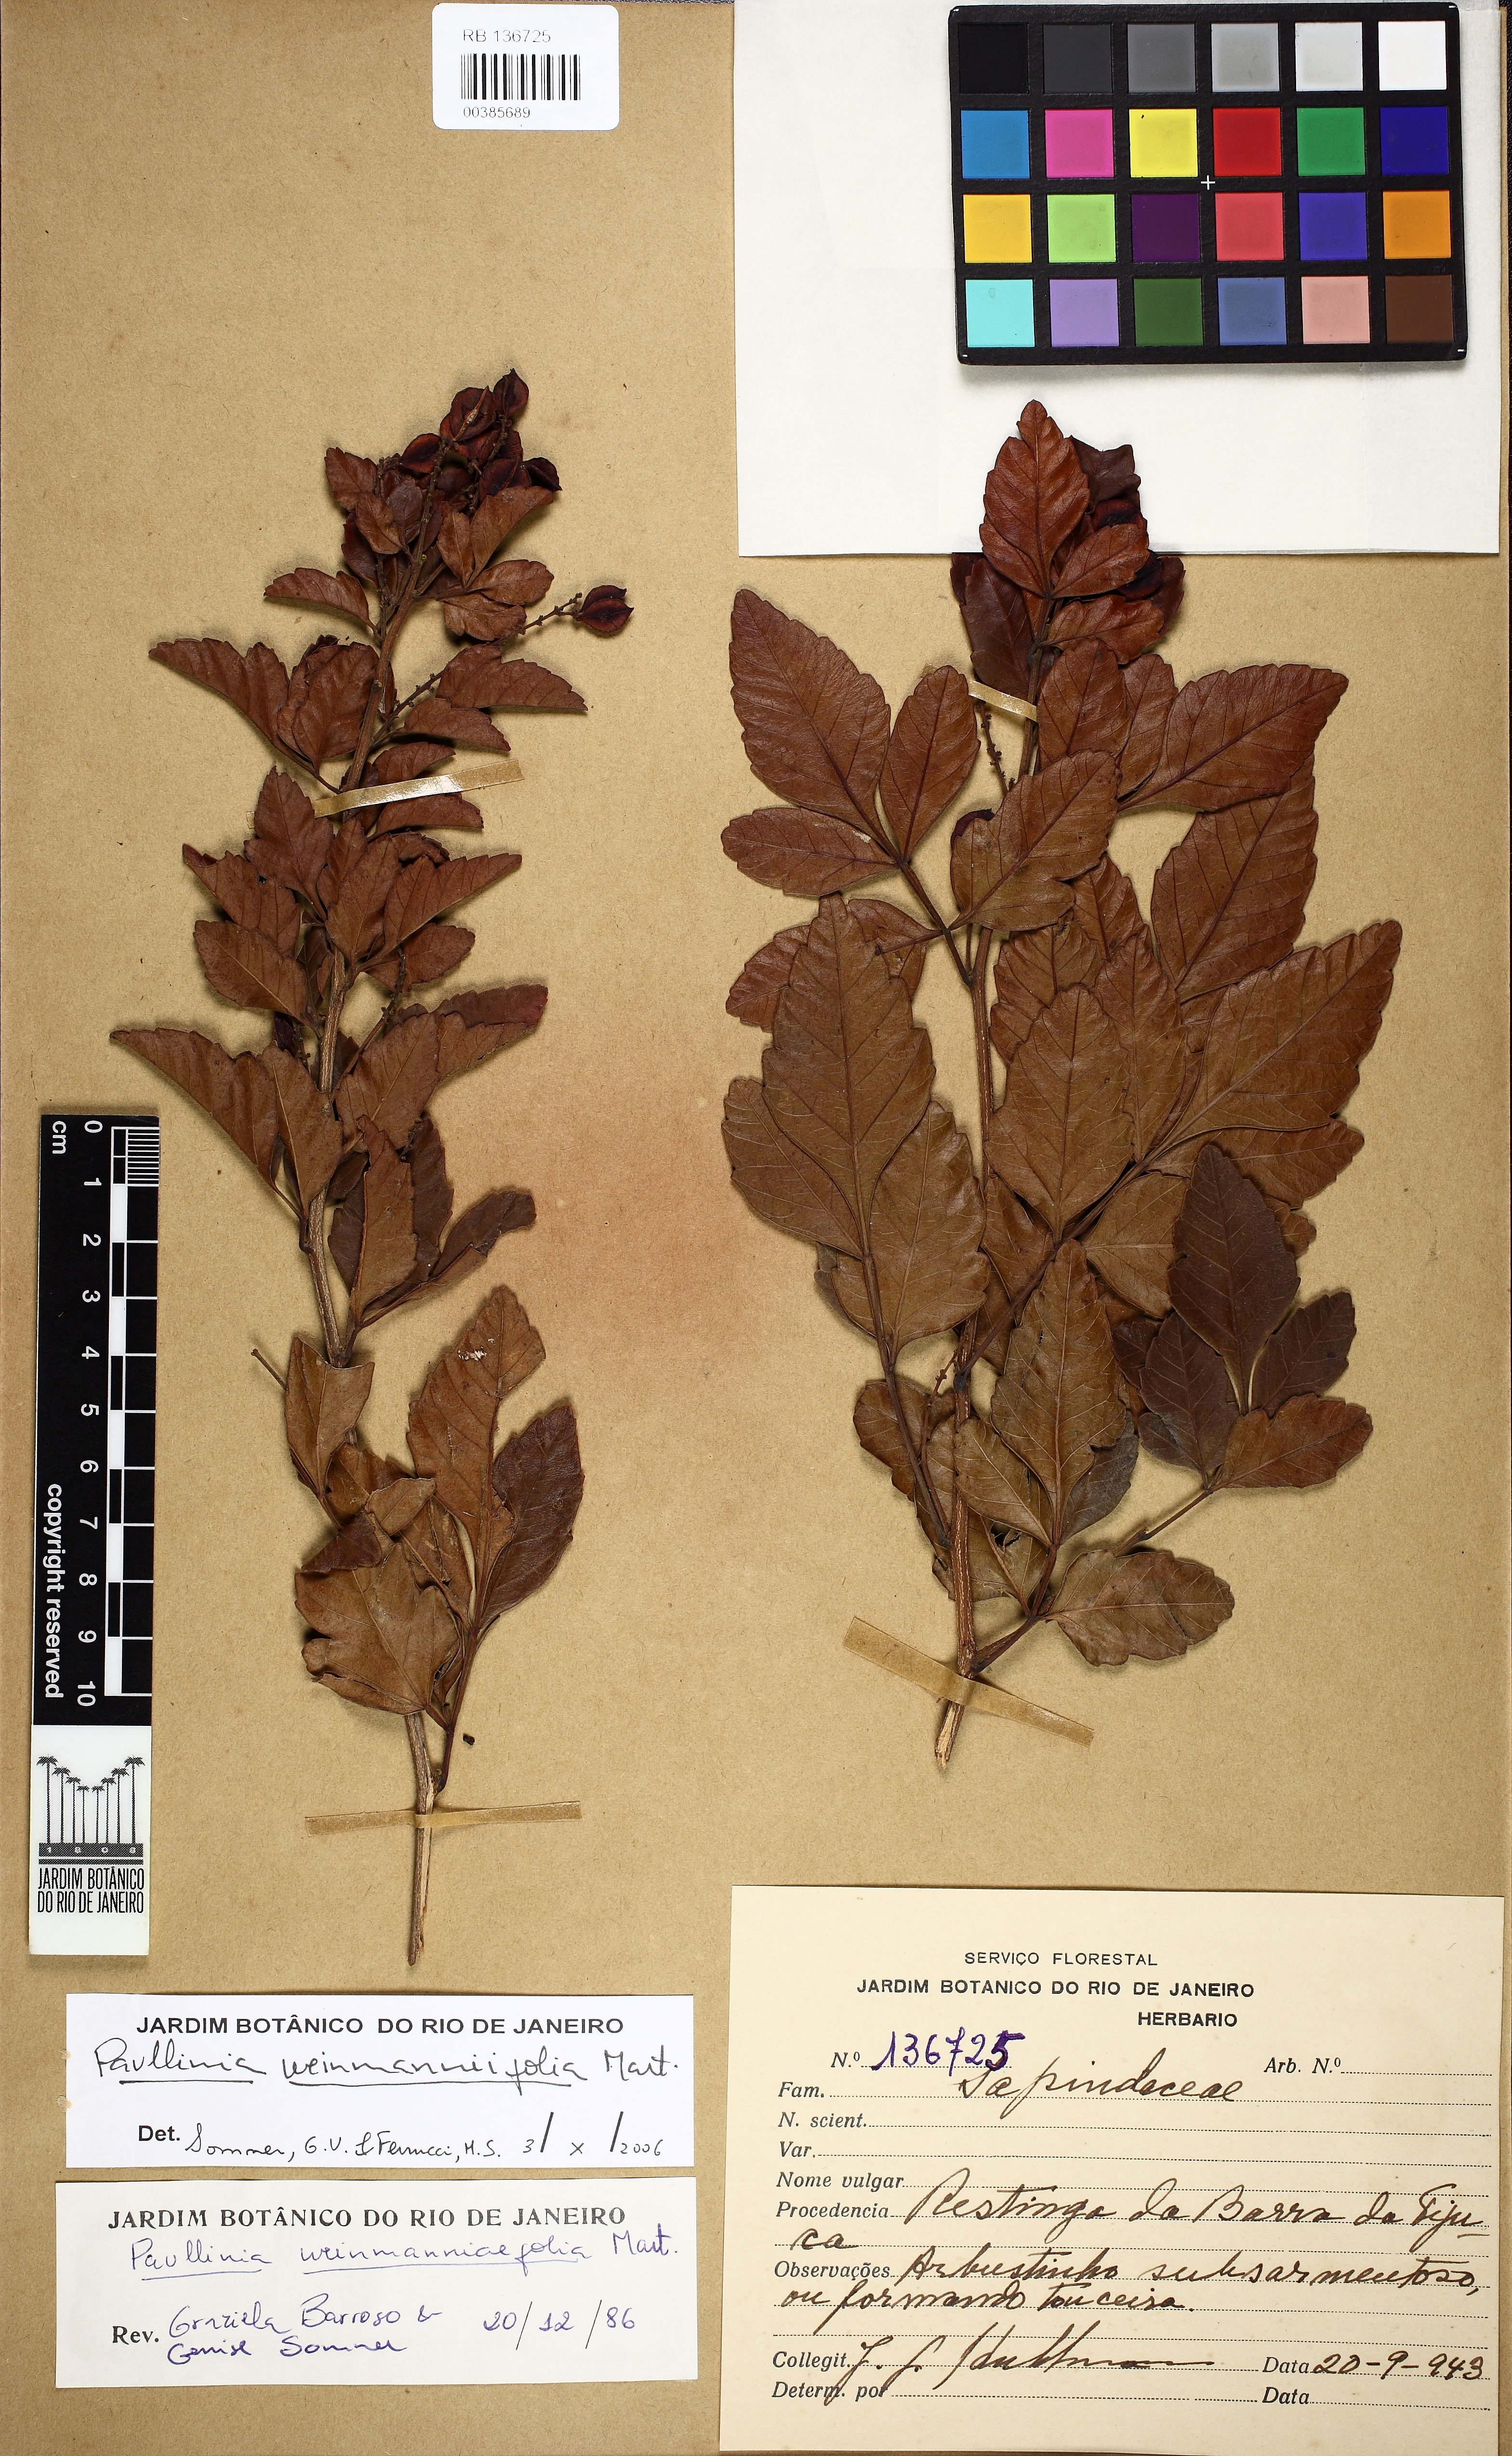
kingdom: Plantae
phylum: Tracheophyta
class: Magnoliopsida
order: Sapindales
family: Sapindaceae
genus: Paullinia
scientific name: Paullinia weinmanniifolia
